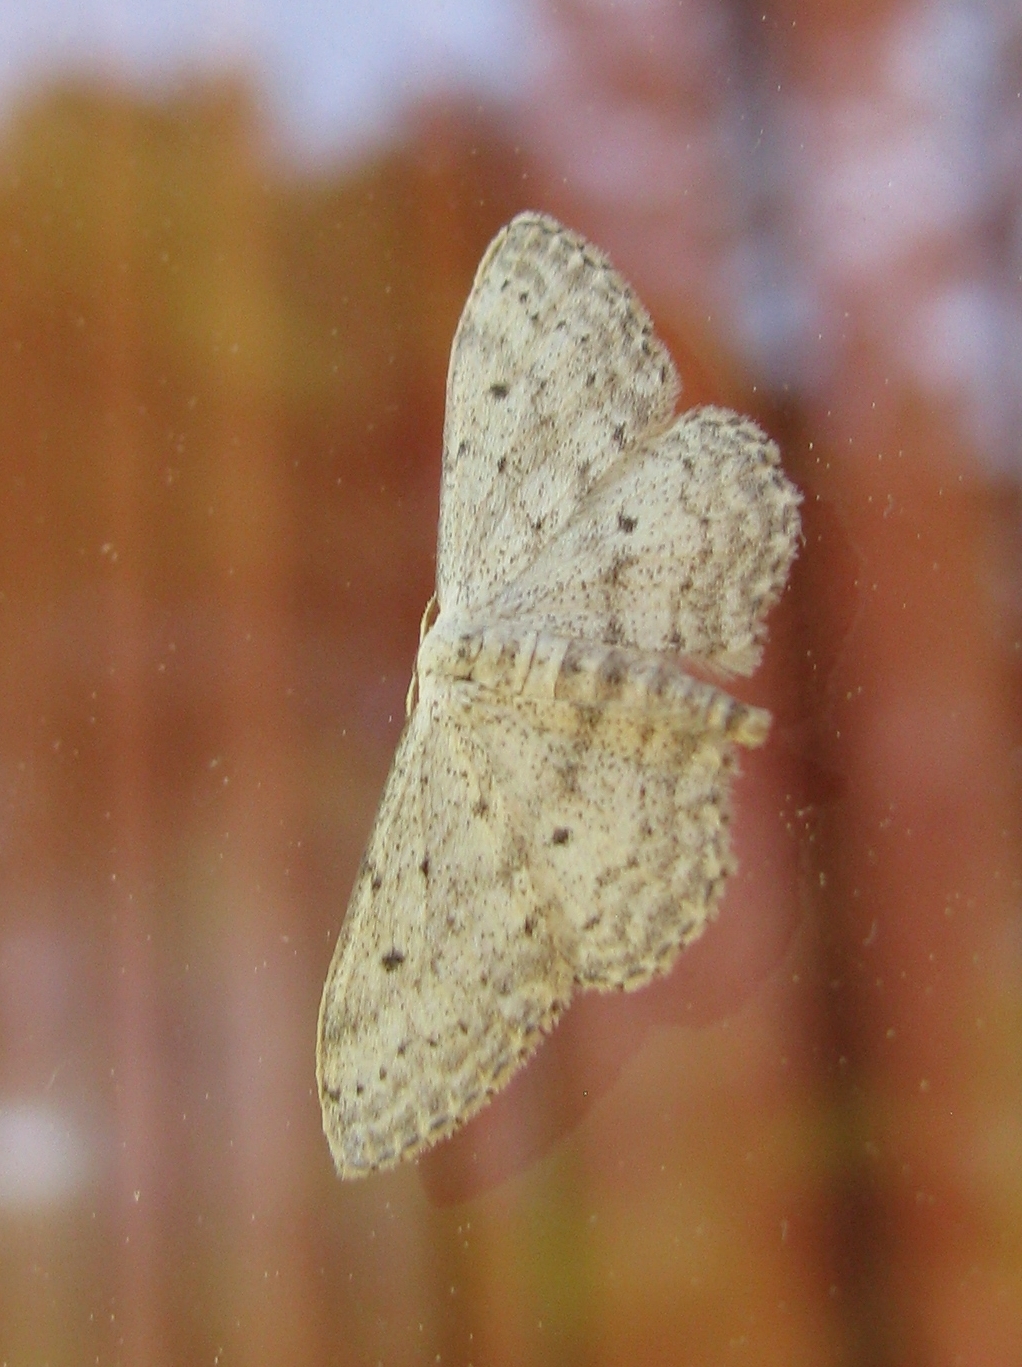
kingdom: Animalia
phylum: Arthropoda
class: Insecta
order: Lepidoptera
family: Geometridae
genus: Idaea
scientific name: Idaea seriata
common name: Small dusty wave
